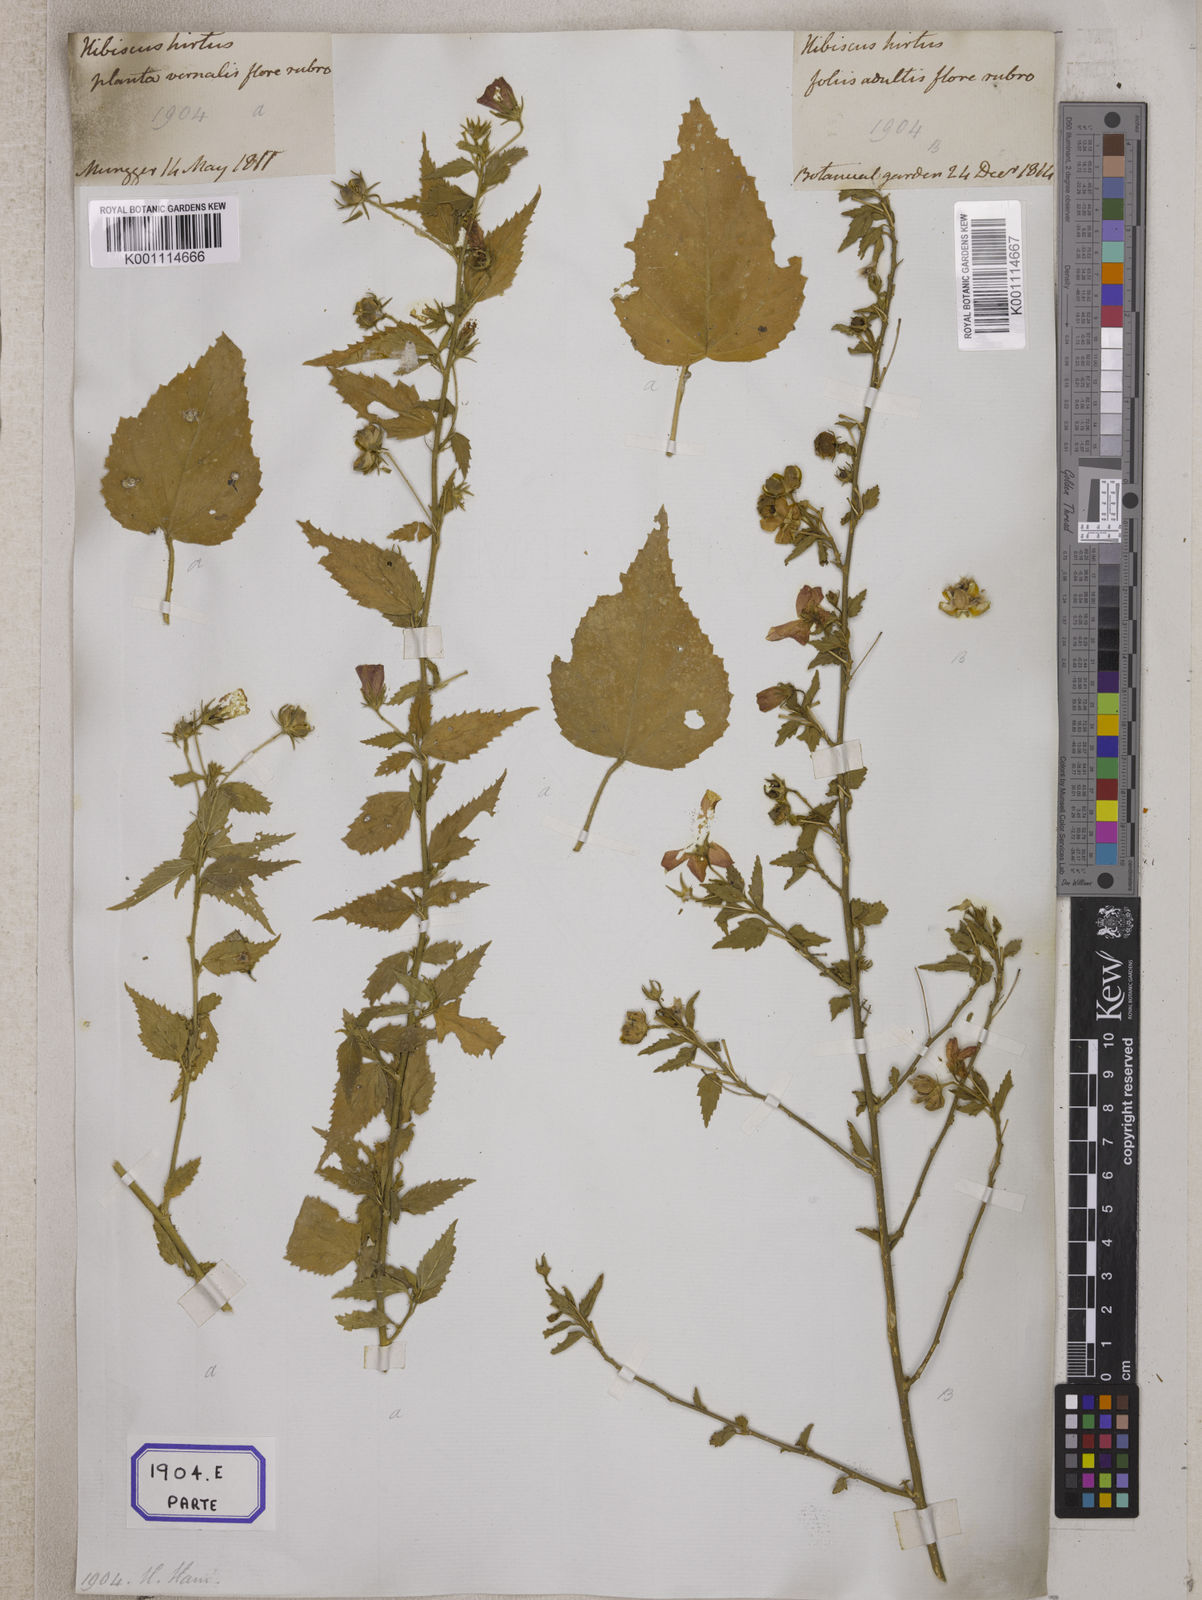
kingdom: Plantae
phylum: Tracheophyta
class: Magnoliopsida
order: Malvales
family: Malvaceae
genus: Hibiscus
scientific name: Hibiscus phoeniceus
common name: Brazilian rosemallow
